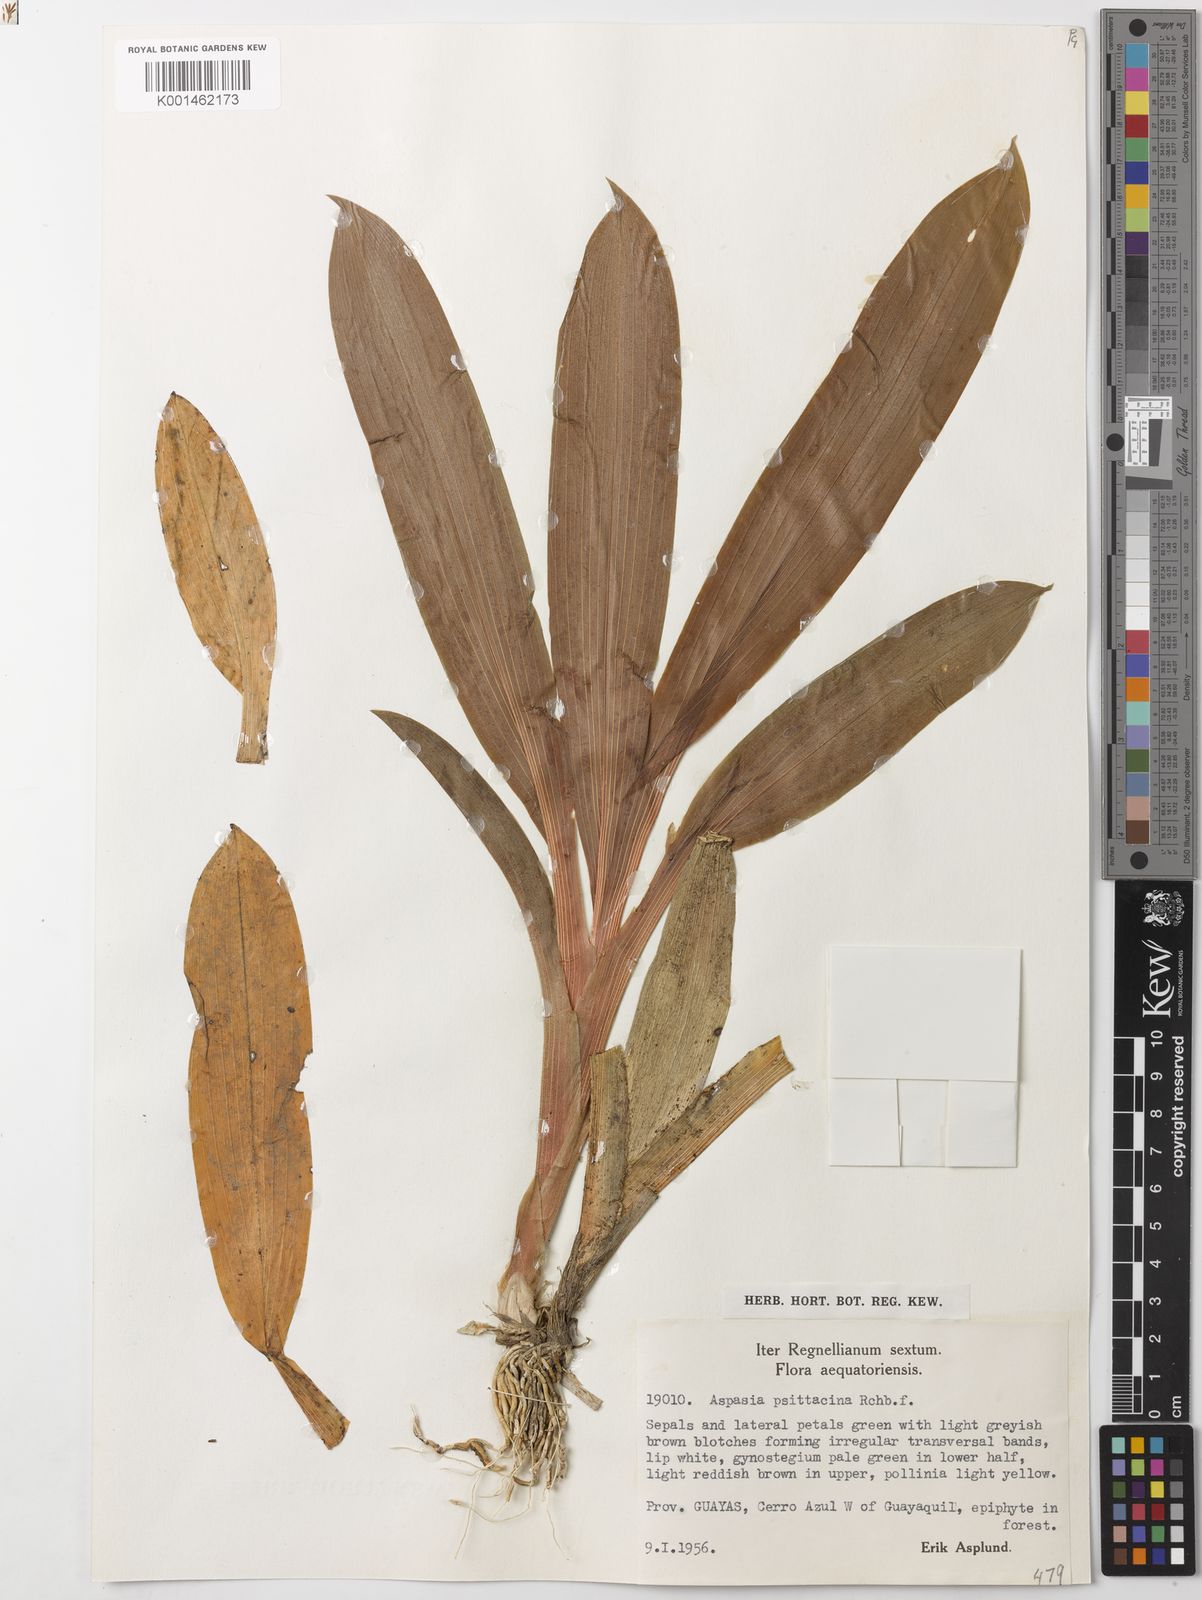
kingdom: Plantae
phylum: Tracheophyta
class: Liliopsida
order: Asparagales
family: Orchidaceae
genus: Aspasia
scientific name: Aspasia psittacina
